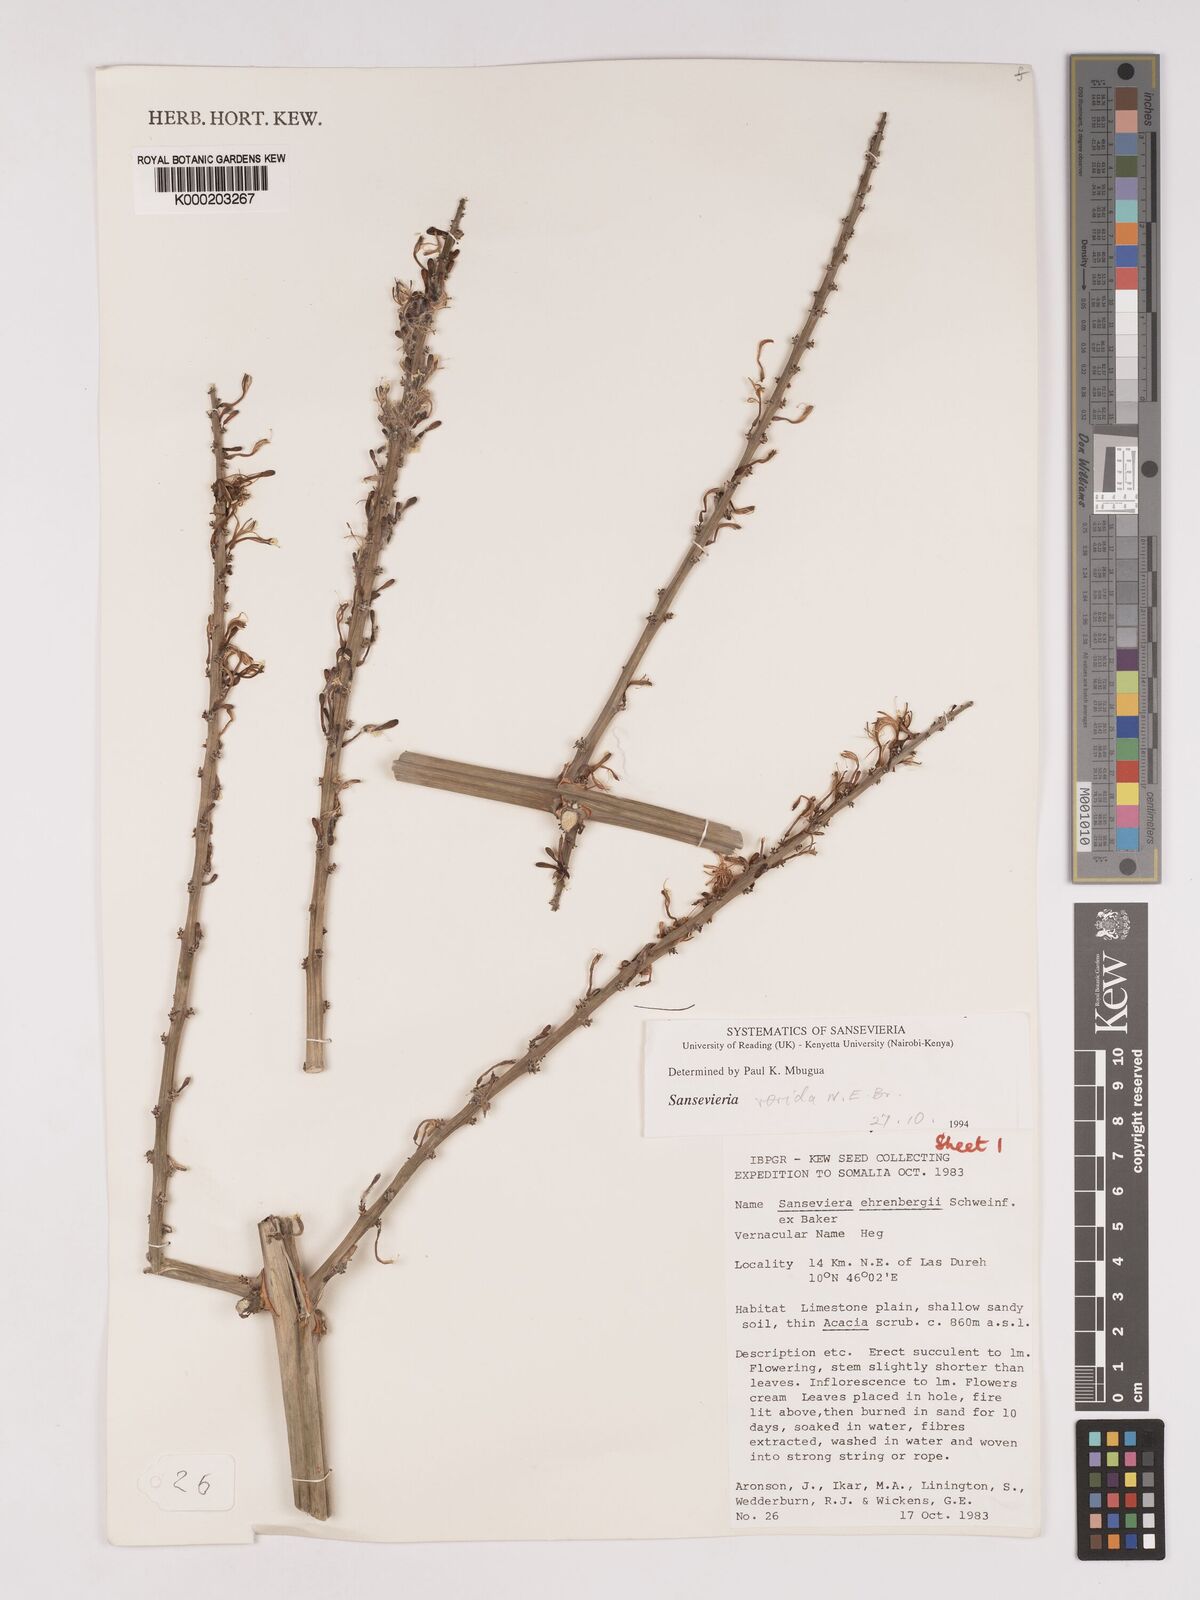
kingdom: Plantae
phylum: Tracheophyta
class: Liliopsida
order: Asparagales
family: Asparagaceae
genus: Dracaena
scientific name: Dracaena hanningtonii
